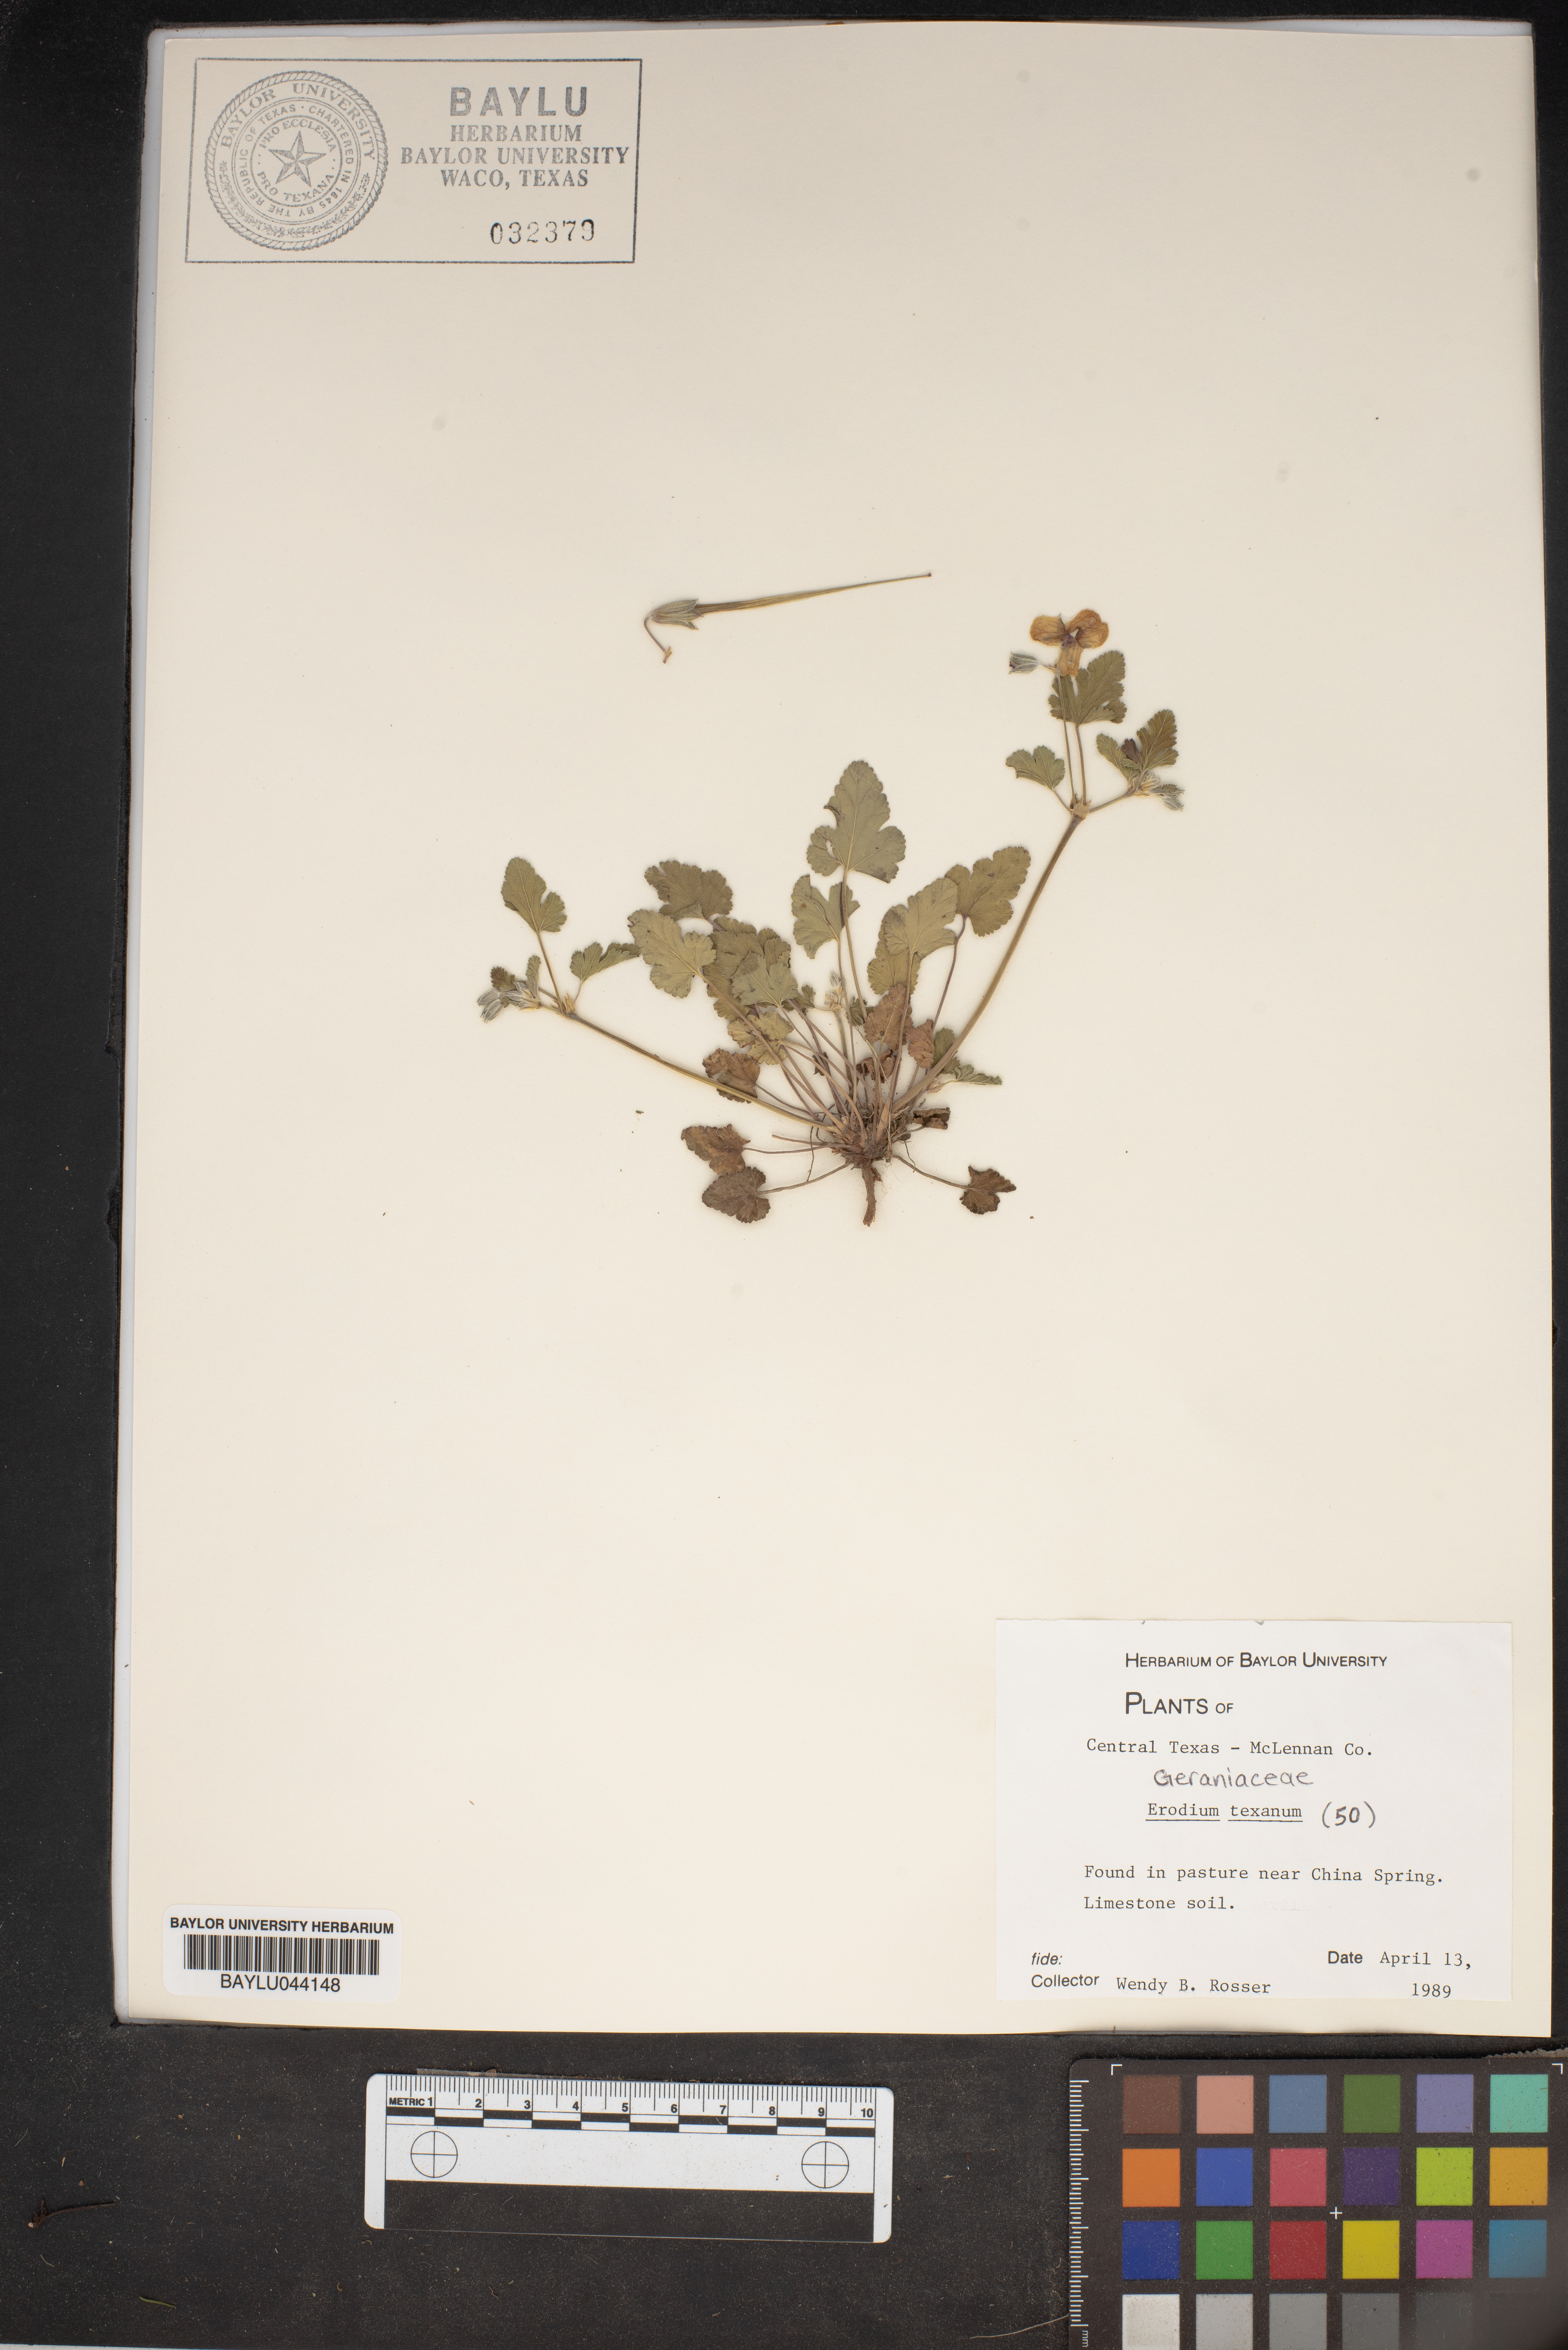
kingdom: Plantae
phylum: Tracheophyta
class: Magnoliopsida
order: Geraniales
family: Geraniaceae
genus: Erodium
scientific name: Erodium texanum
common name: Texas stork's-bill
